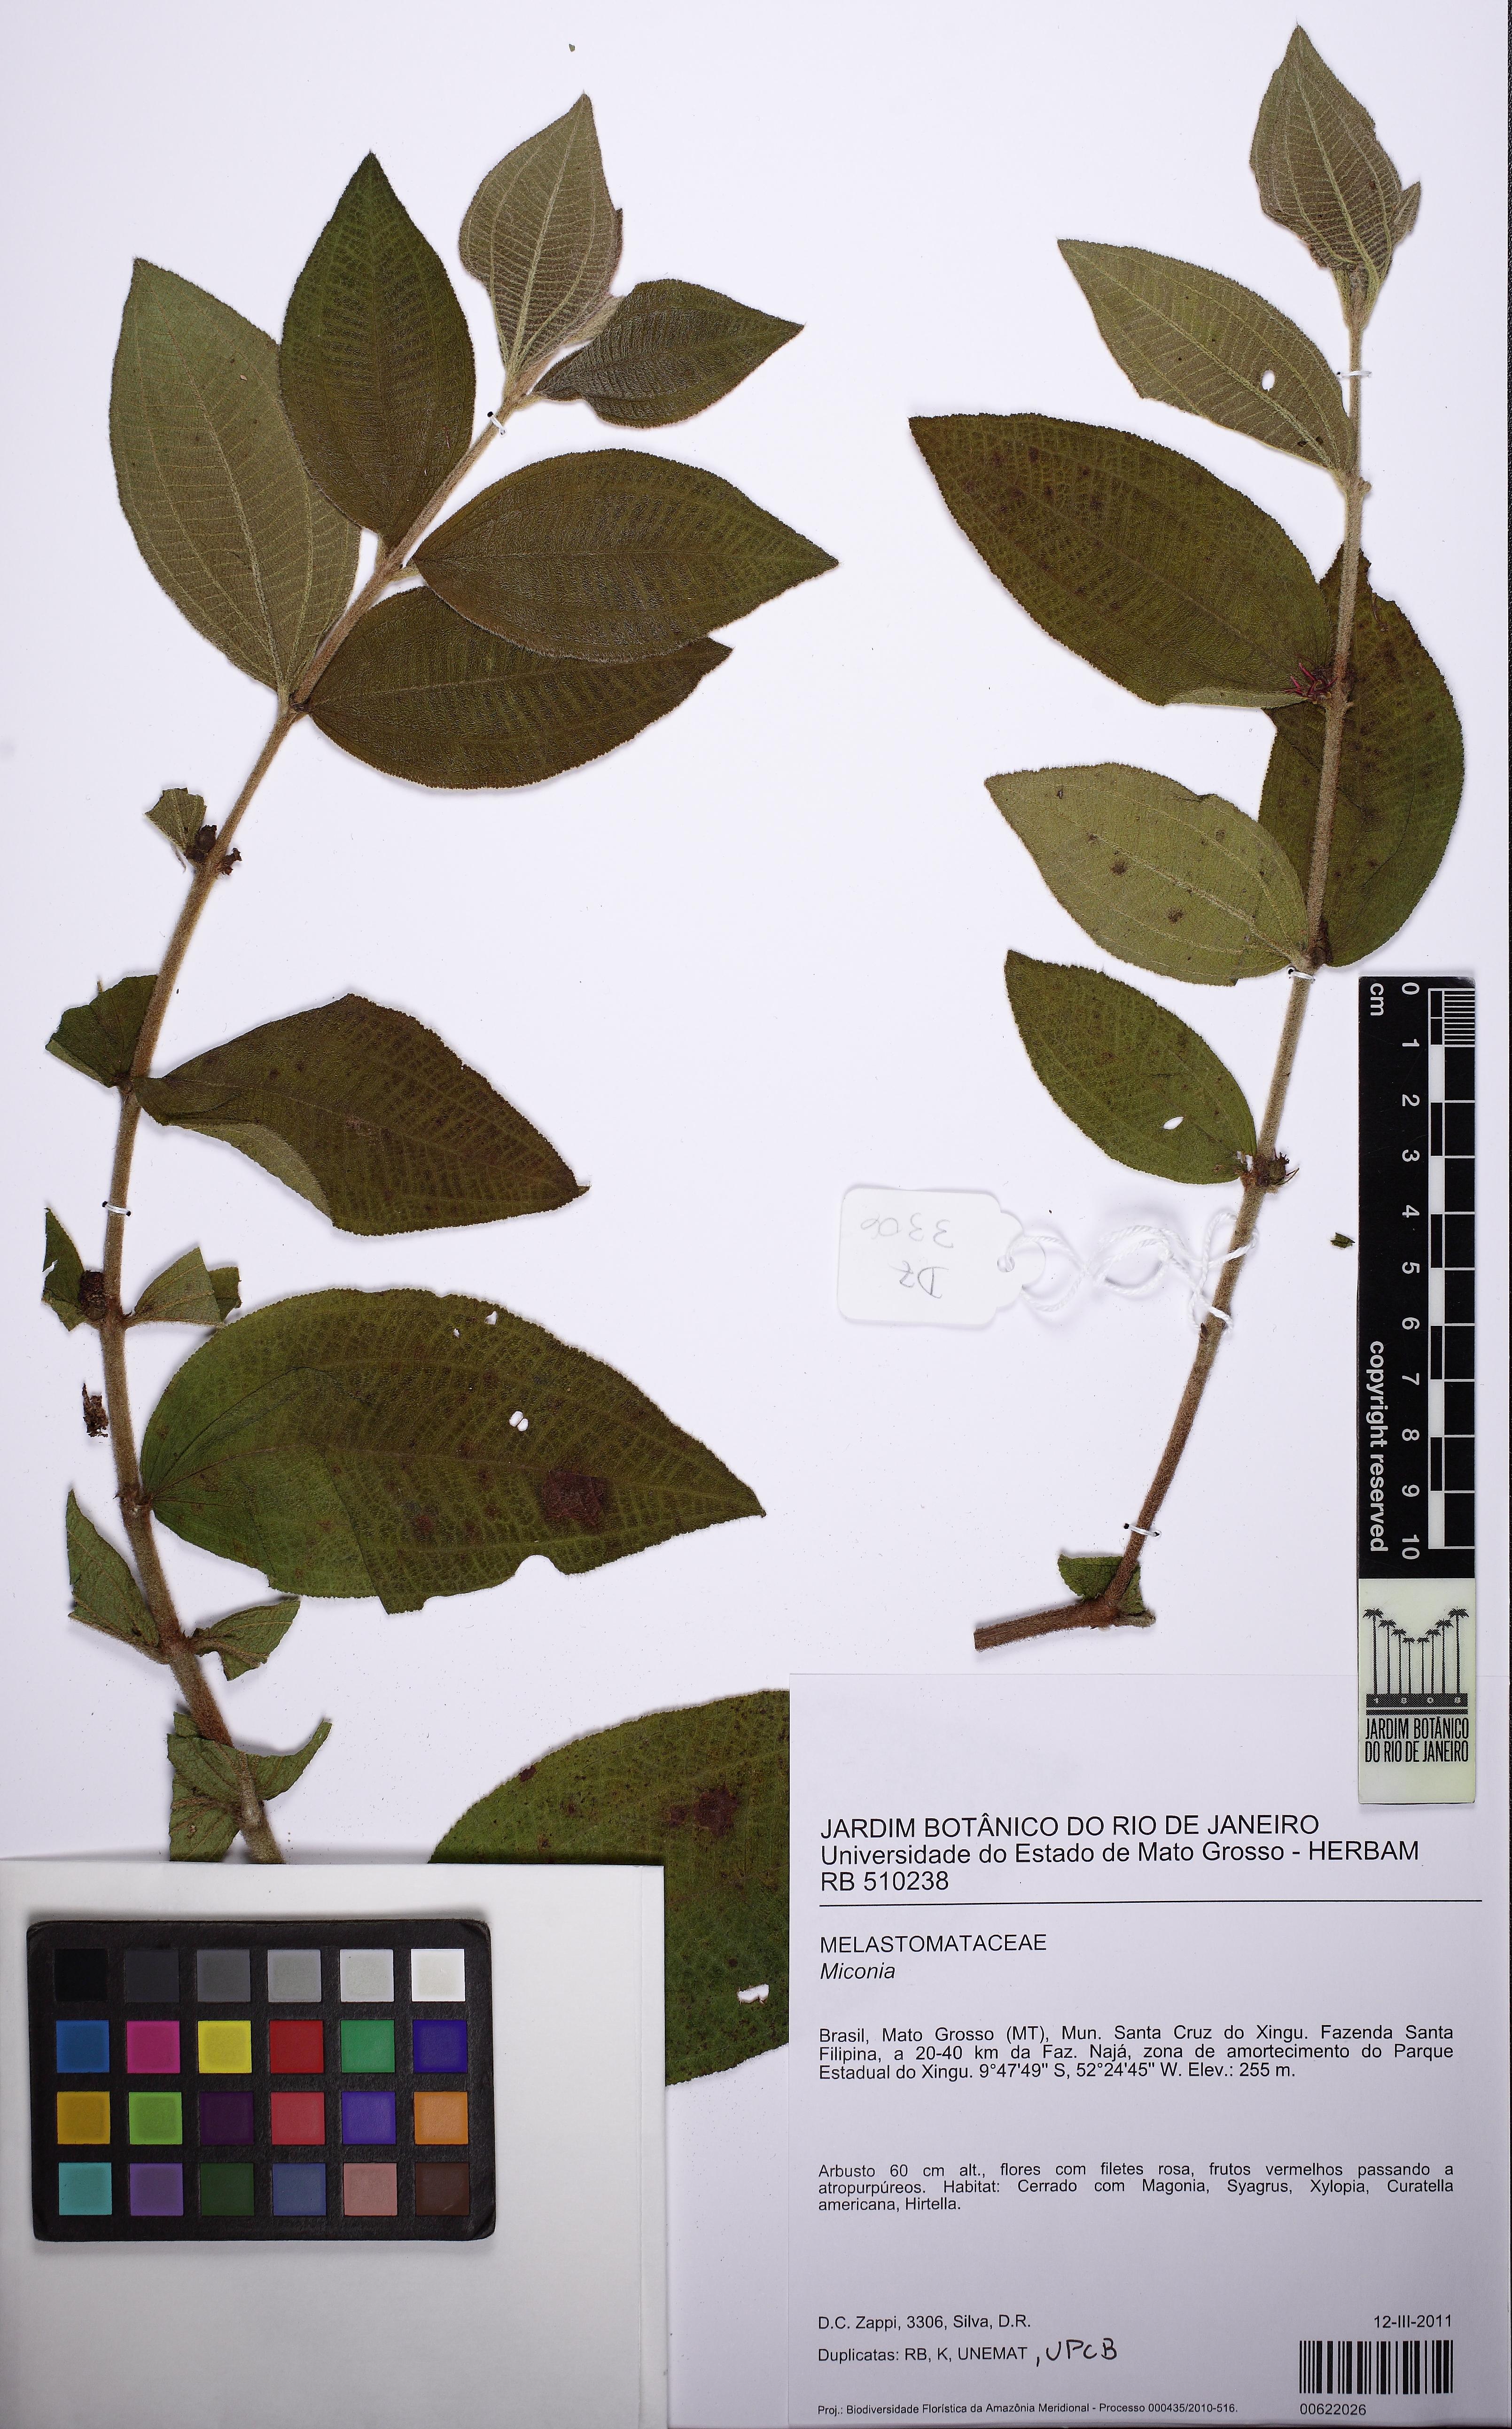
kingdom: Plantae
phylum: Tracheophyta
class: Magnoliopsida
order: Myrtales
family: Melastomataceae
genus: Miconia
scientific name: Miconia rubra
